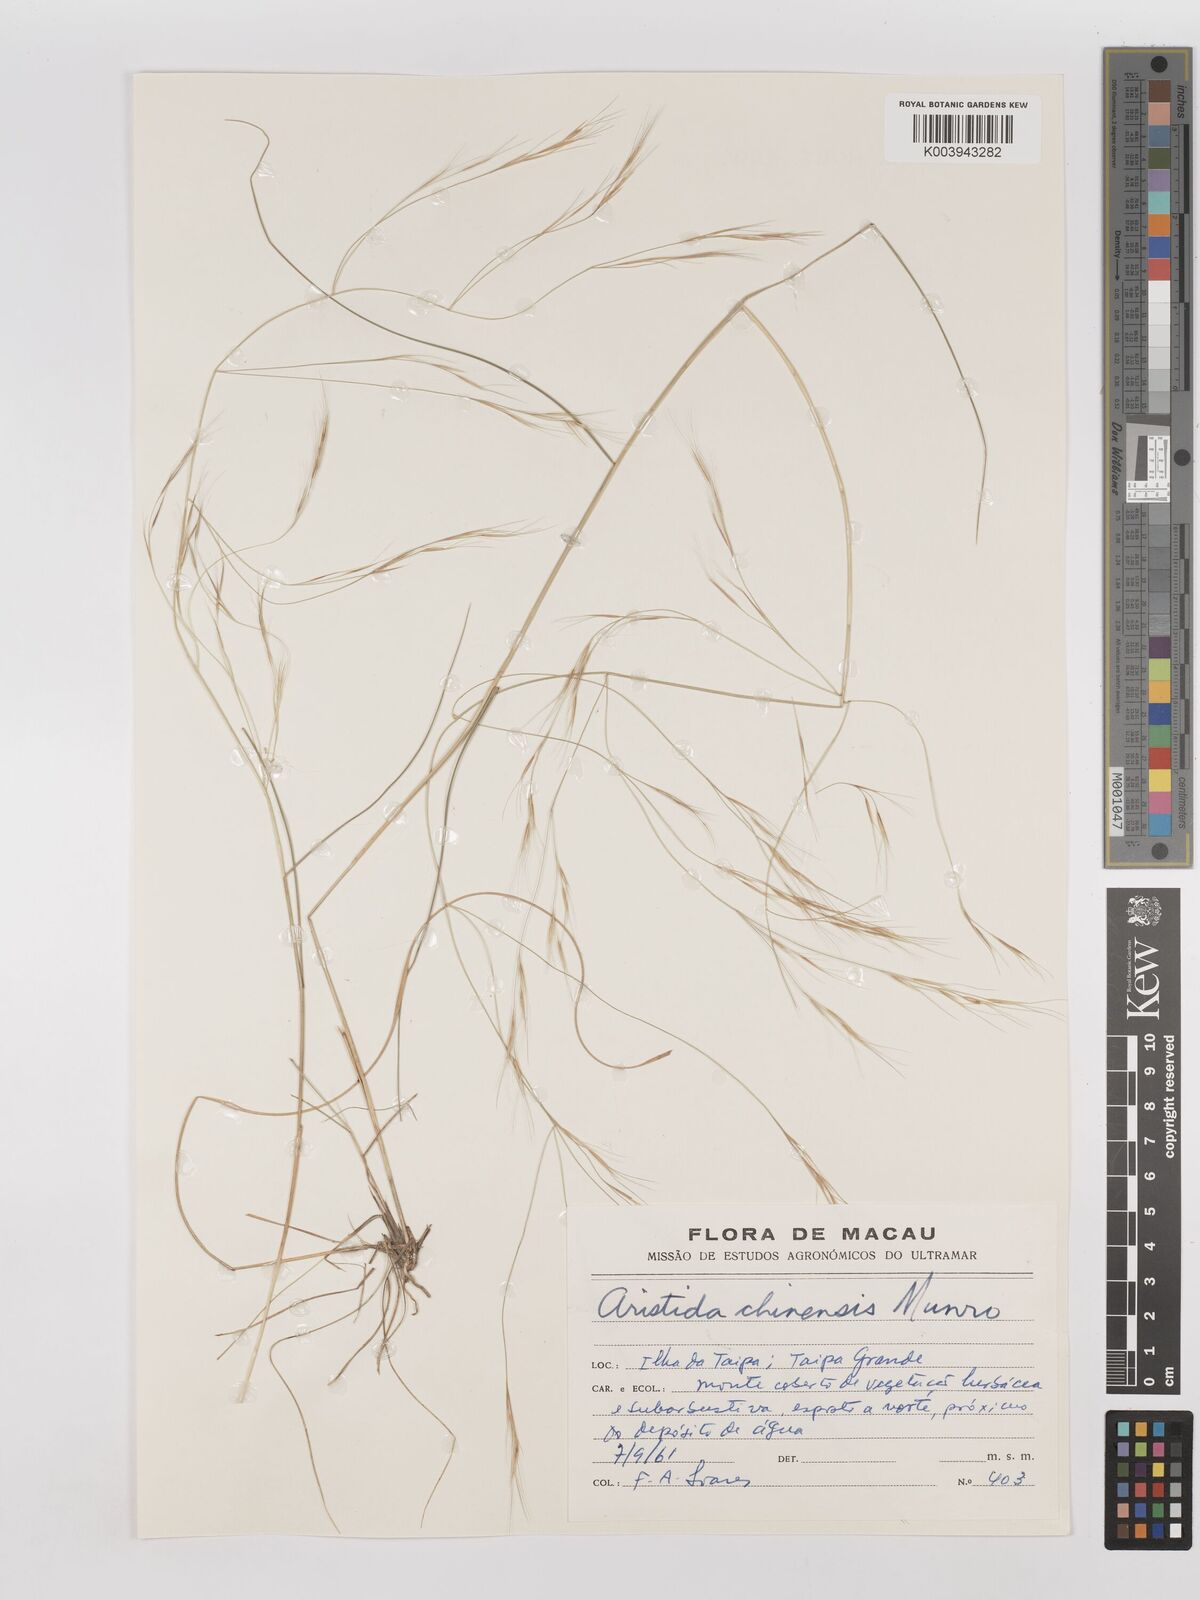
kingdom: Plantae
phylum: Tracheophyta
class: Liliopsida
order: Poales
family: Poaceae
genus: Aristida
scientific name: Aristida chinensis
